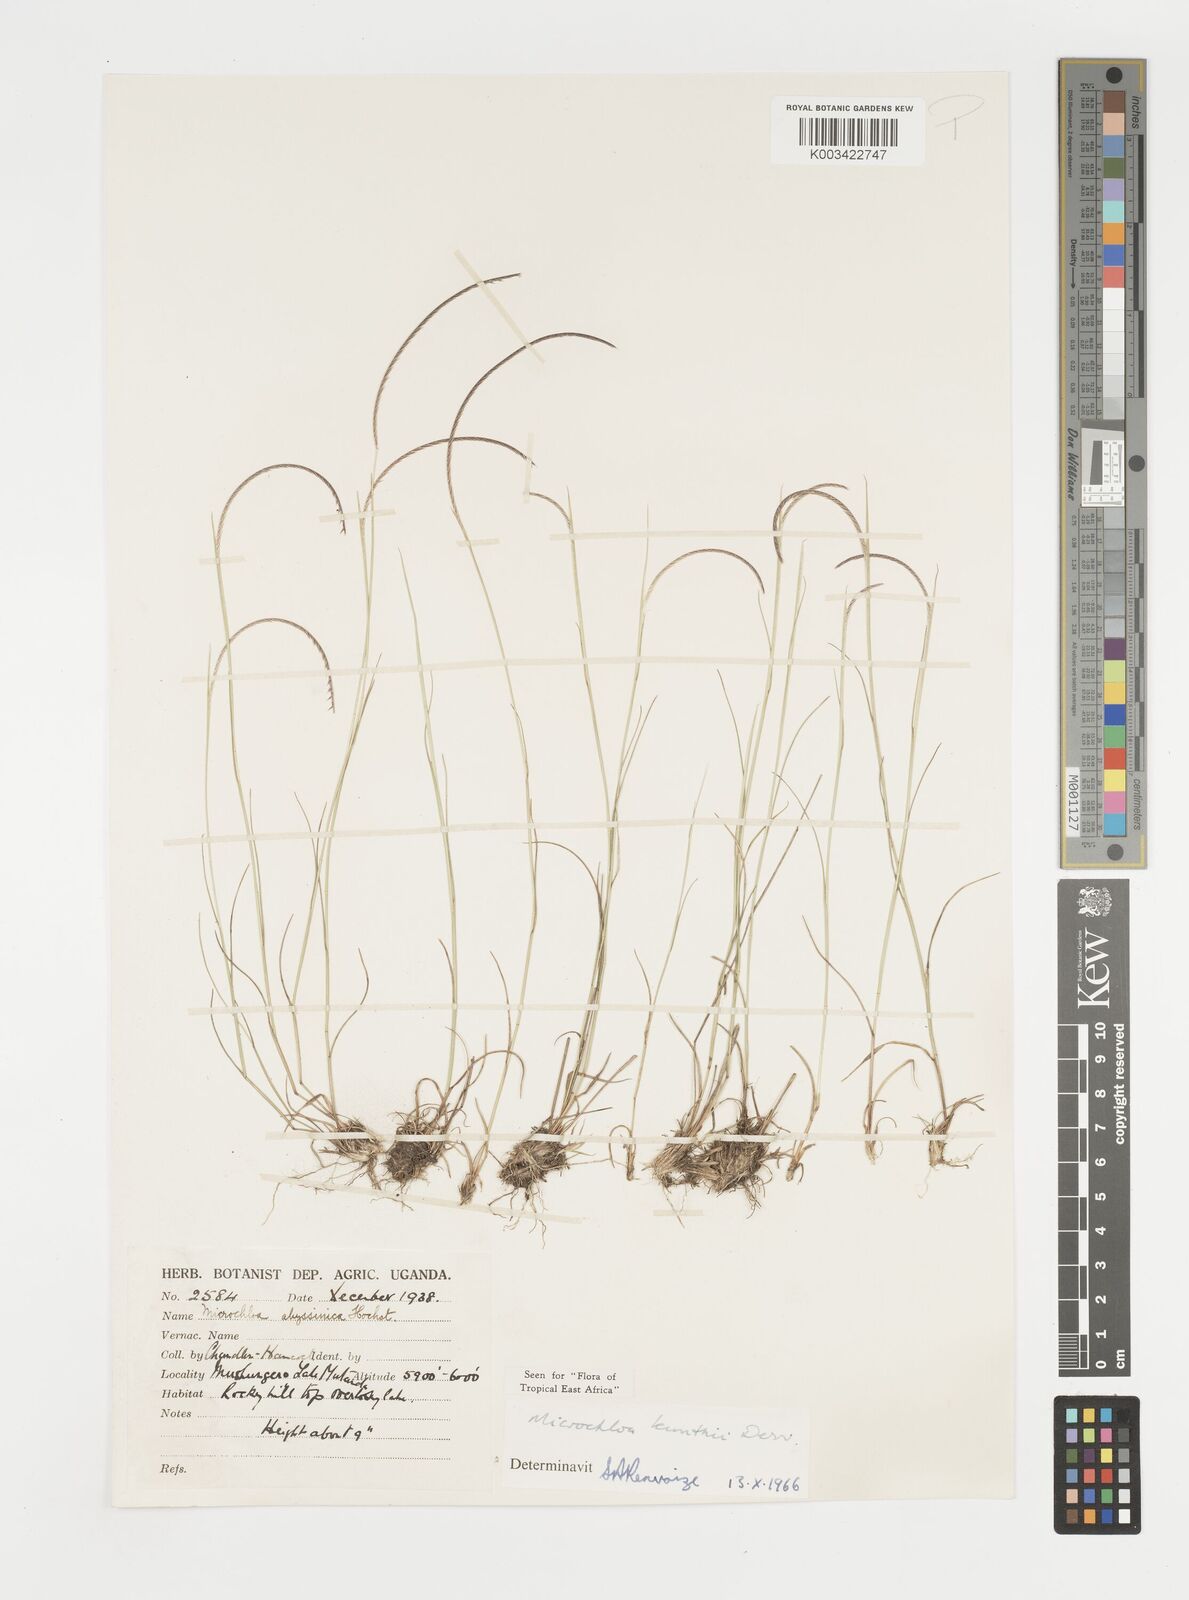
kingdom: Plantae
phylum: Tracheophyta
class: Liliopsida
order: Poales
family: Poaceae
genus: Microchloa
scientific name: Microchloa kunthii
